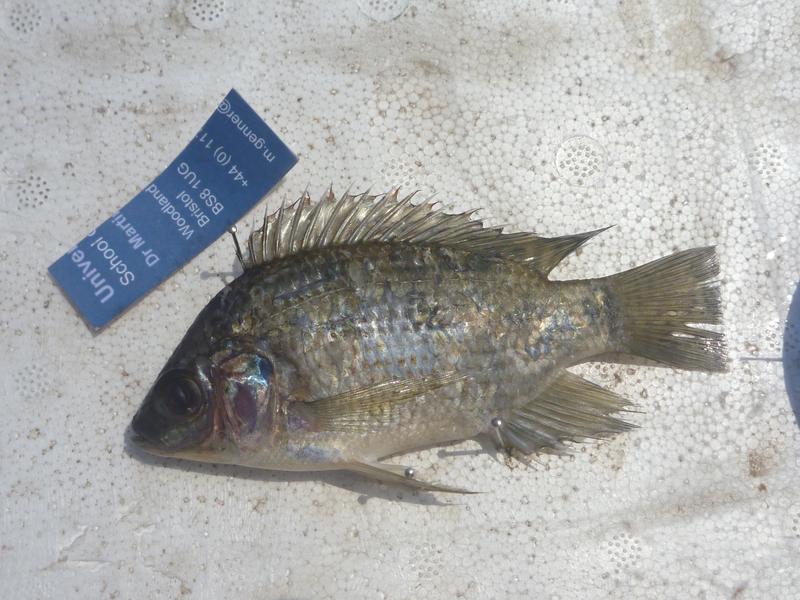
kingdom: Animalia
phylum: Chordata
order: Perciformes
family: Cichlidae
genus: Oreochromis
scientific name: Oreochromis upembae
